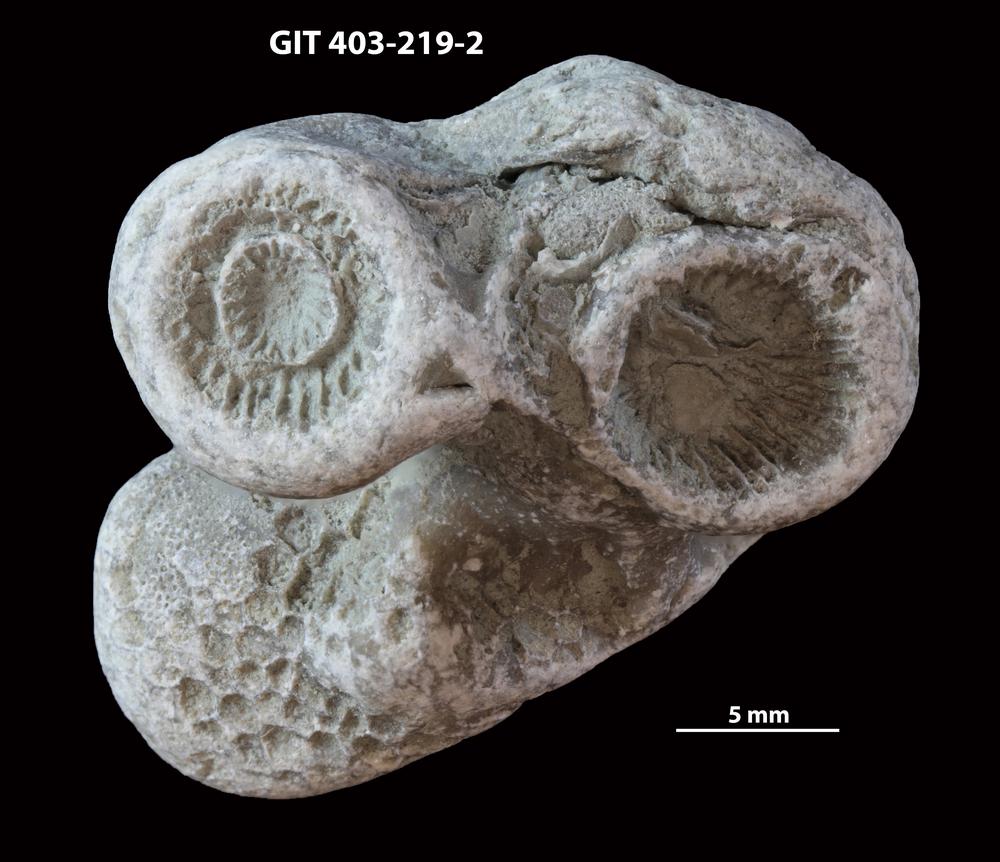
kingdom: Animalia
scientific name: Animalia
